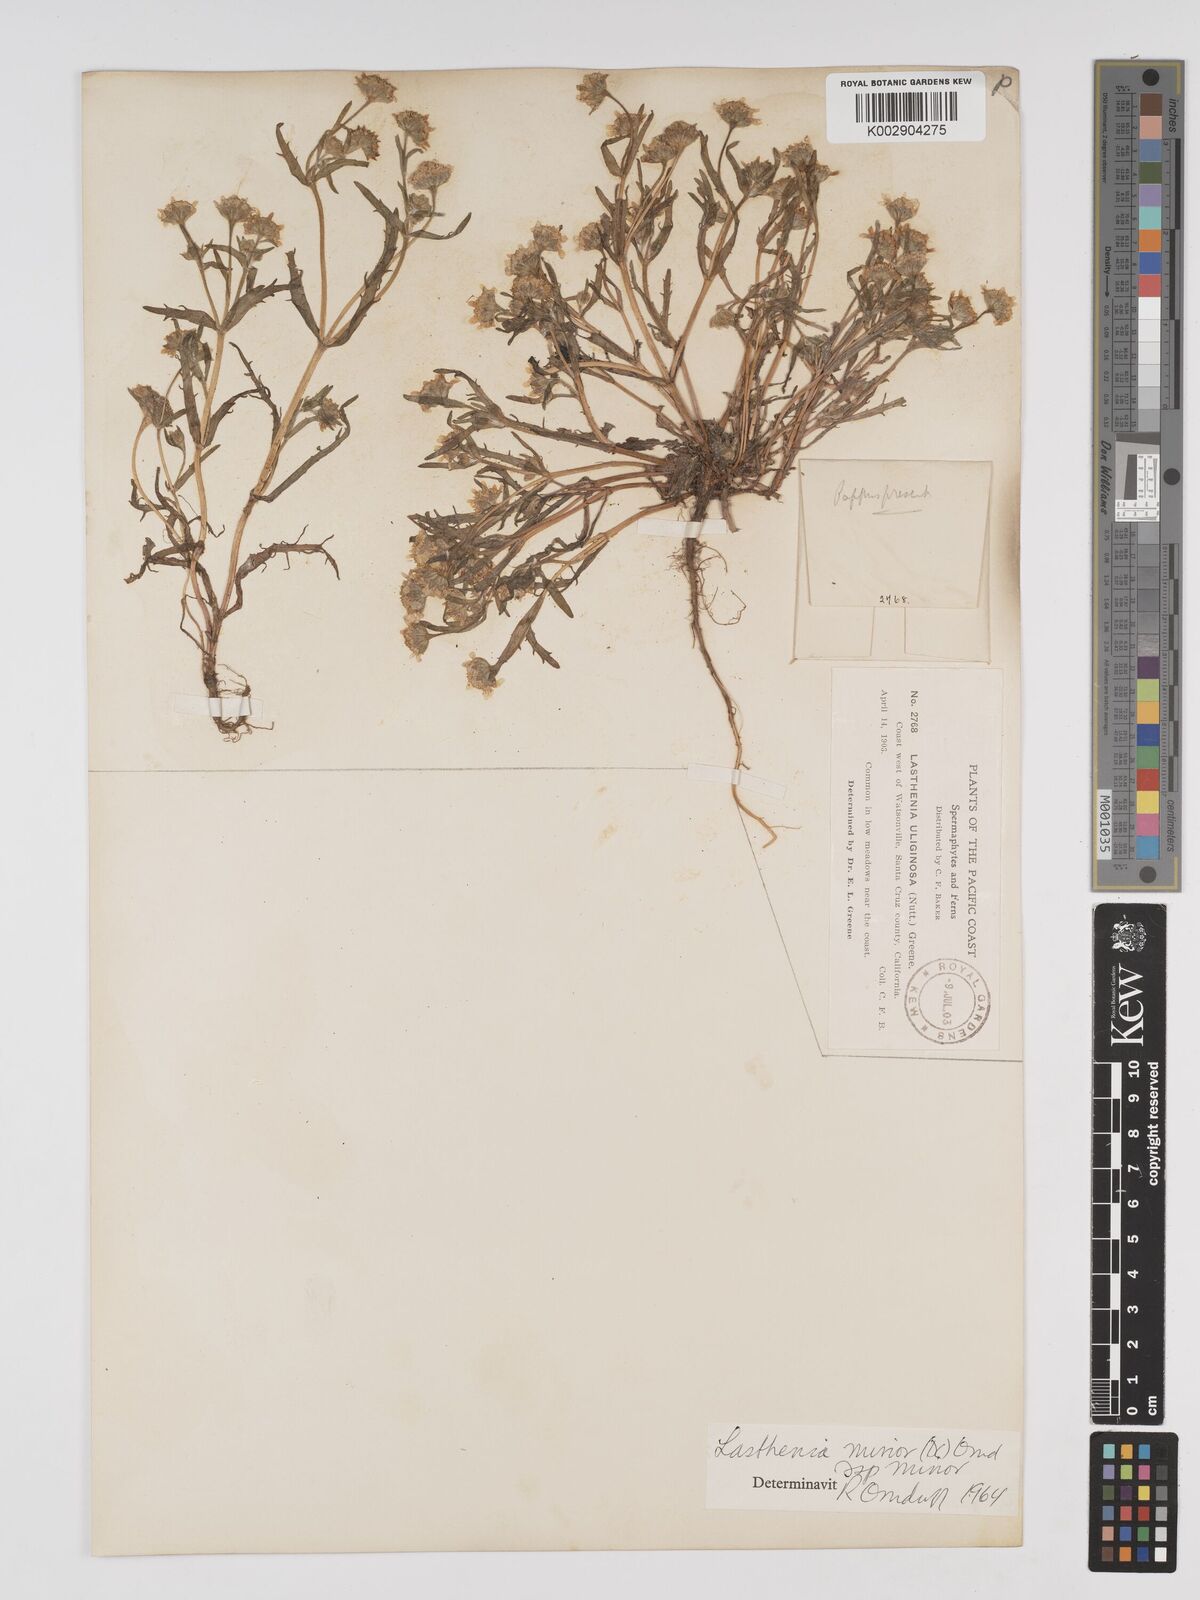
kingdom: Plantae
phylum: Tracheophyta
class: Magnoliopsida
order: Asterales
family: Asteraceae
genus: Lasthenia
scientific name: Lasthenia minor
